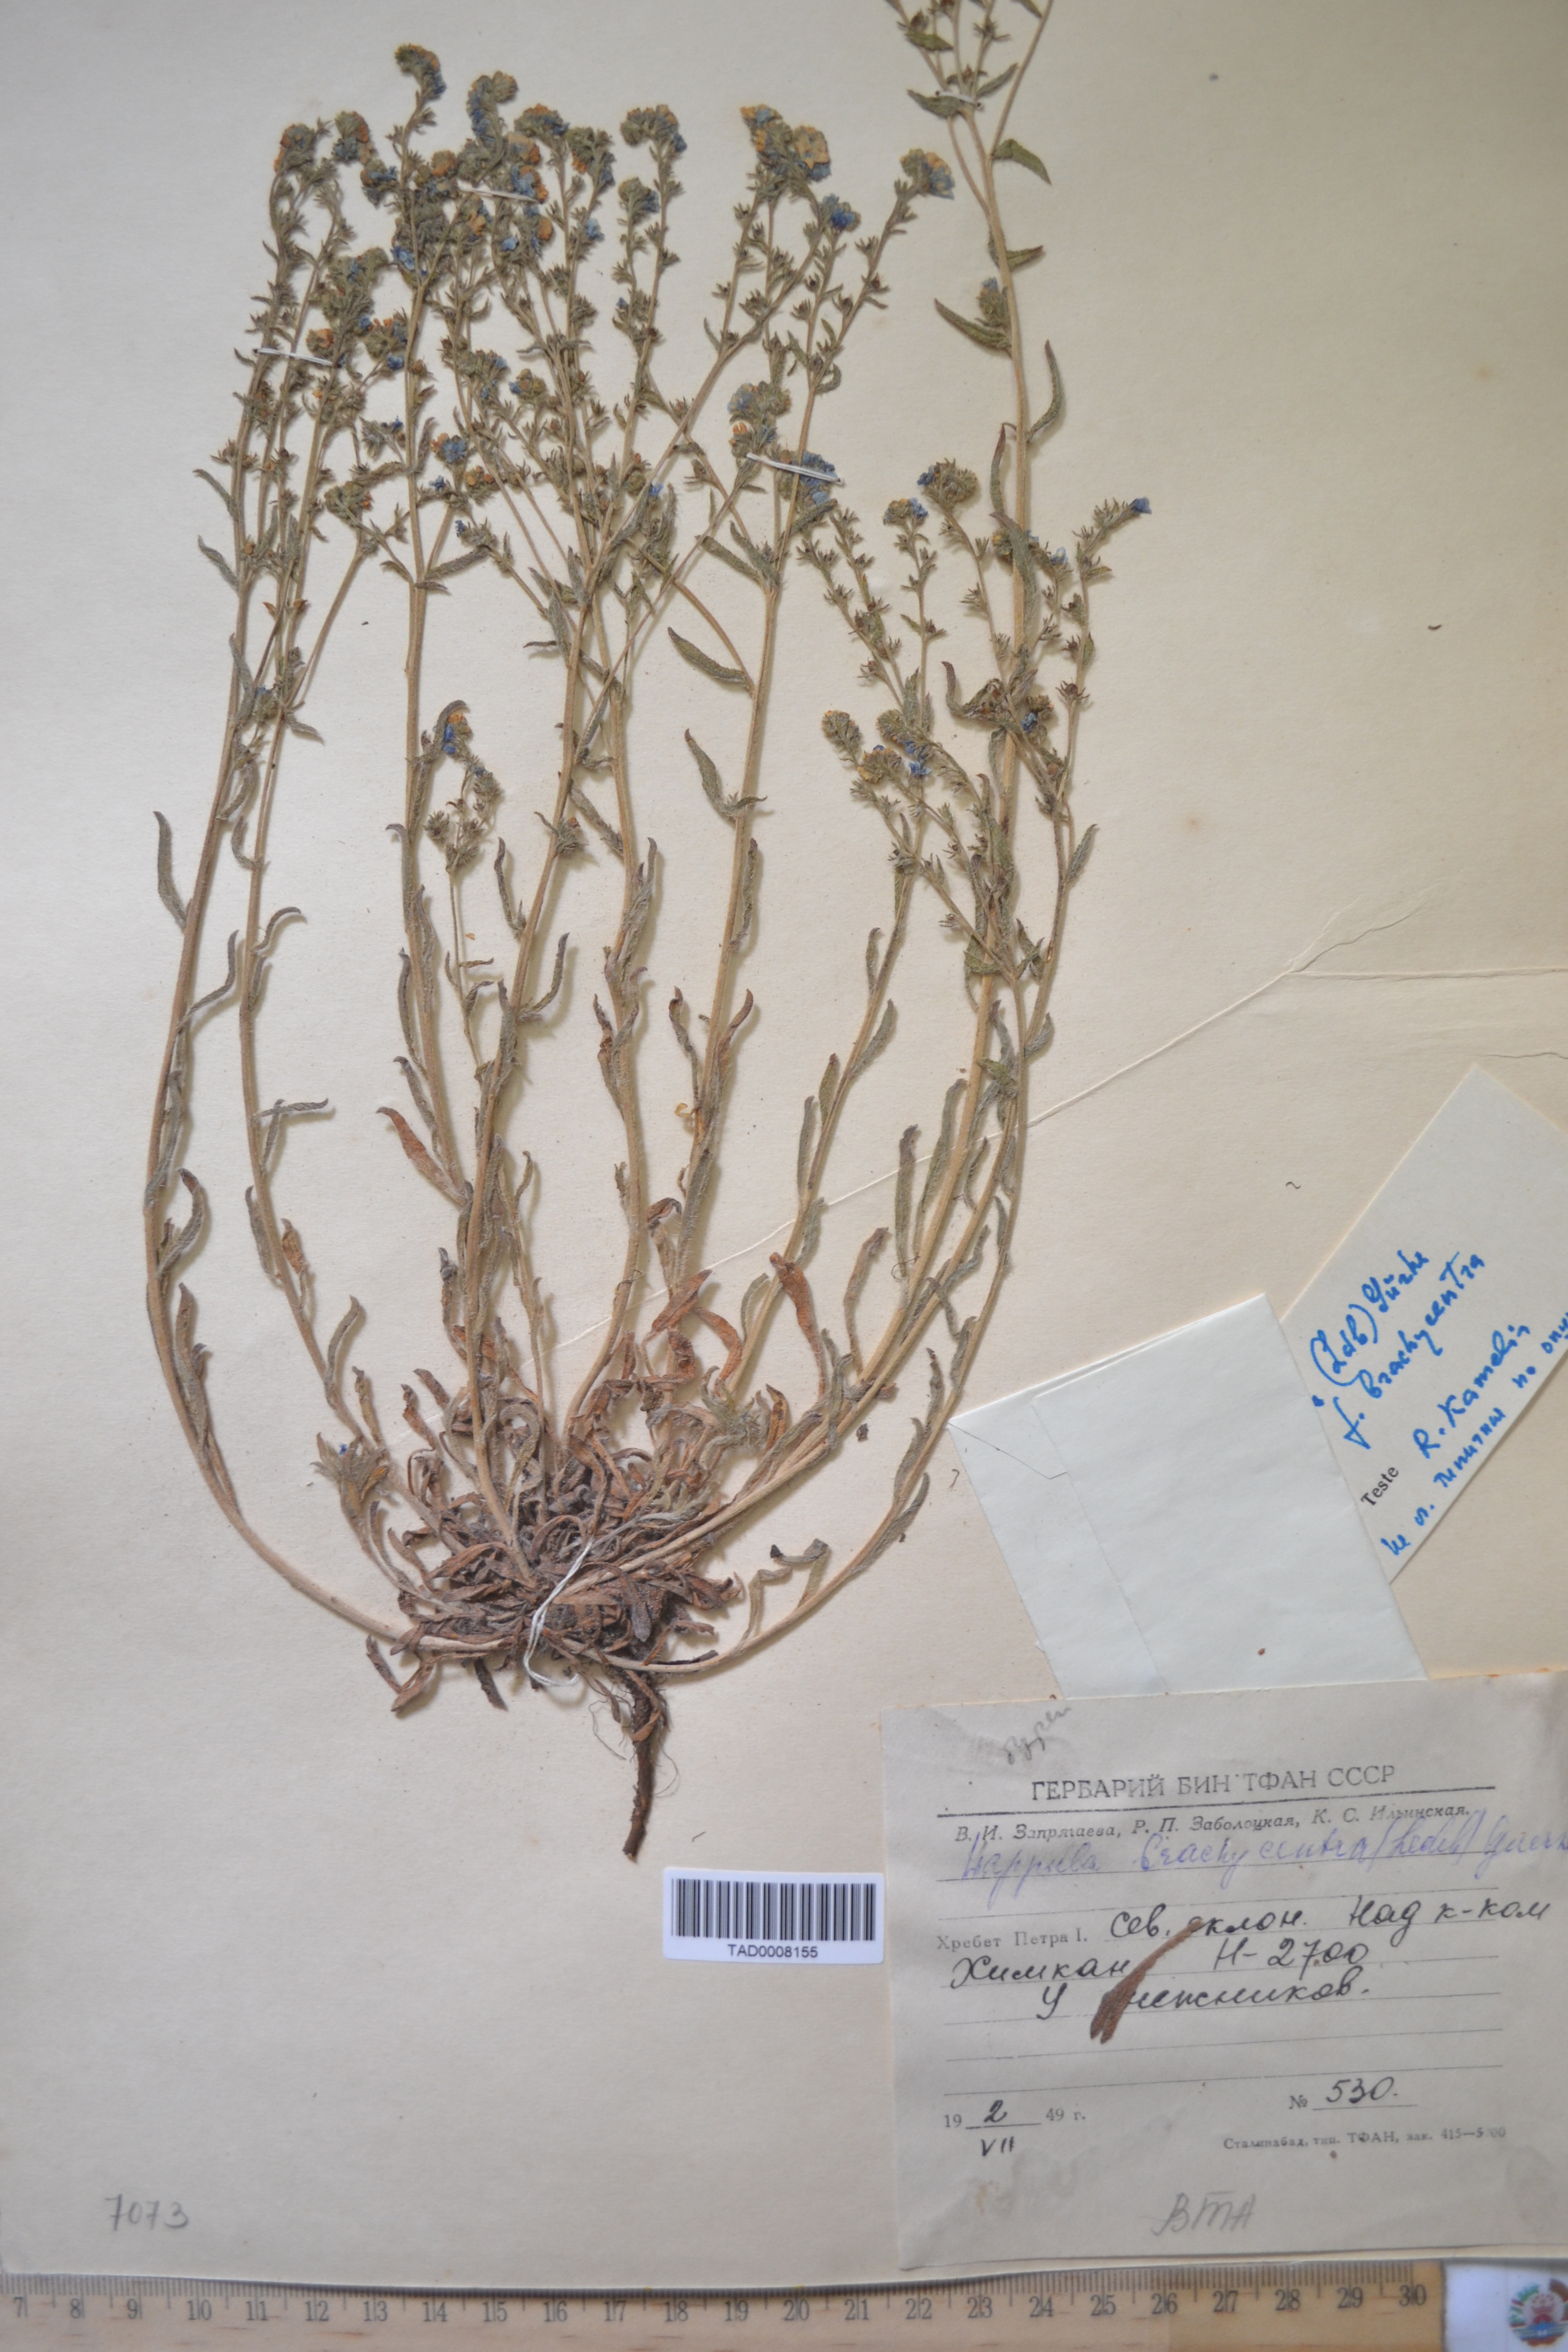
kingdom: Plantae
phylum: Tracheophyta
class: Magnoliopsida
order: Boraginales
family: Boraginaceae
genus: Lappula
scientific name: Lappula brachycentra
